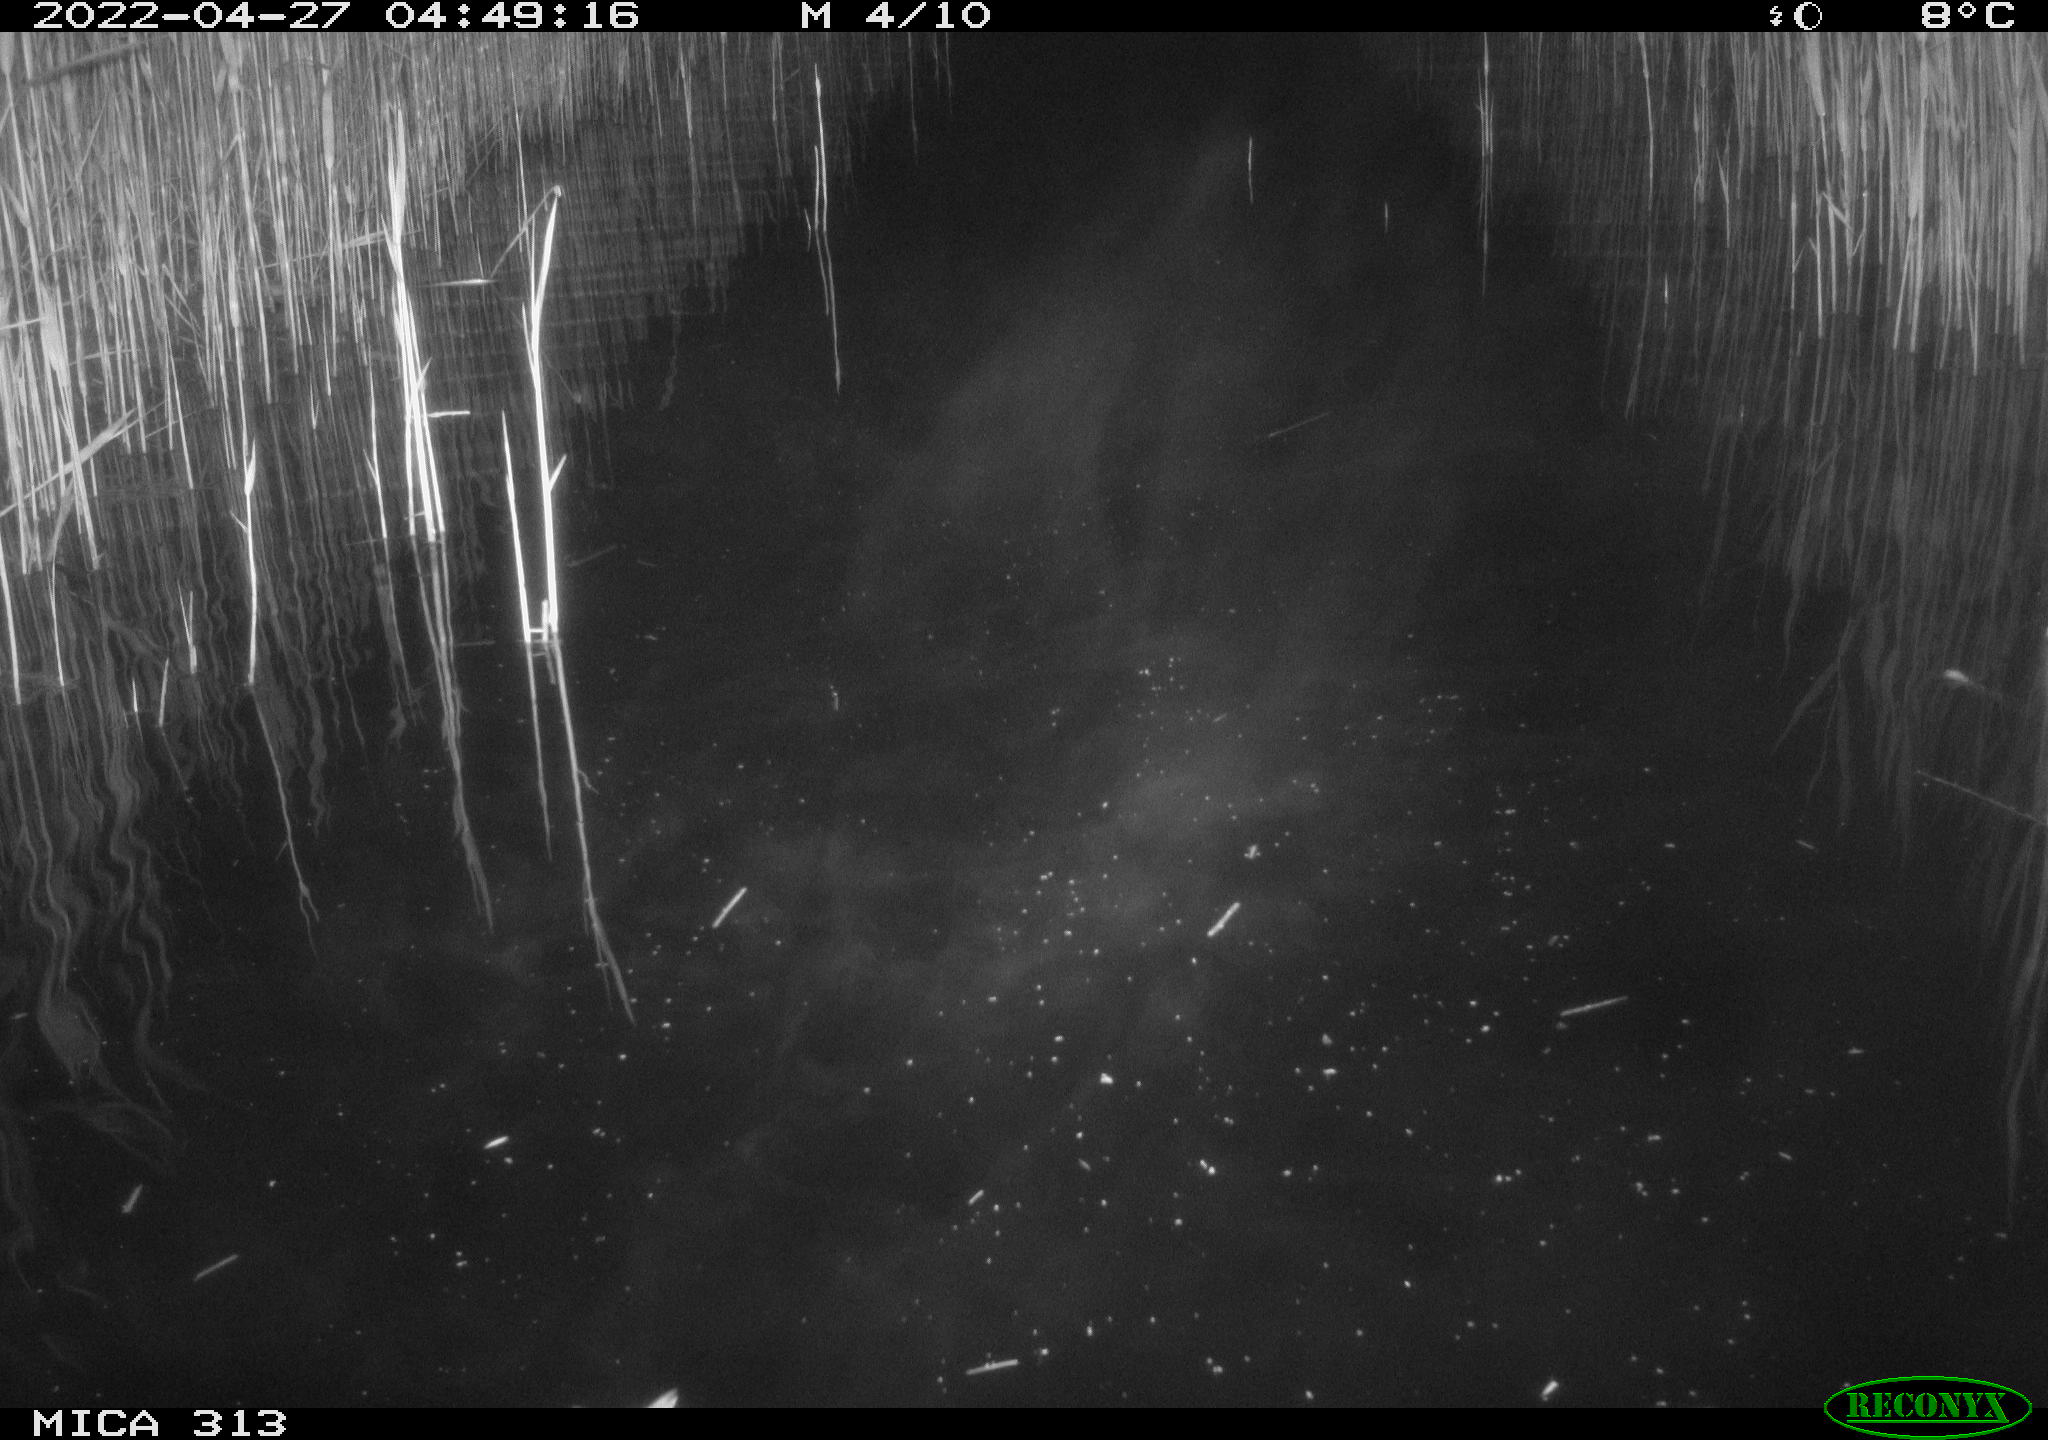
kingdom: Animalia
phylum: Chordata
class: Aves
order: Anseriformes
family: Anatidae
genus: Anas
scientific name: Anas platyrhynchos
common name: Mallard
